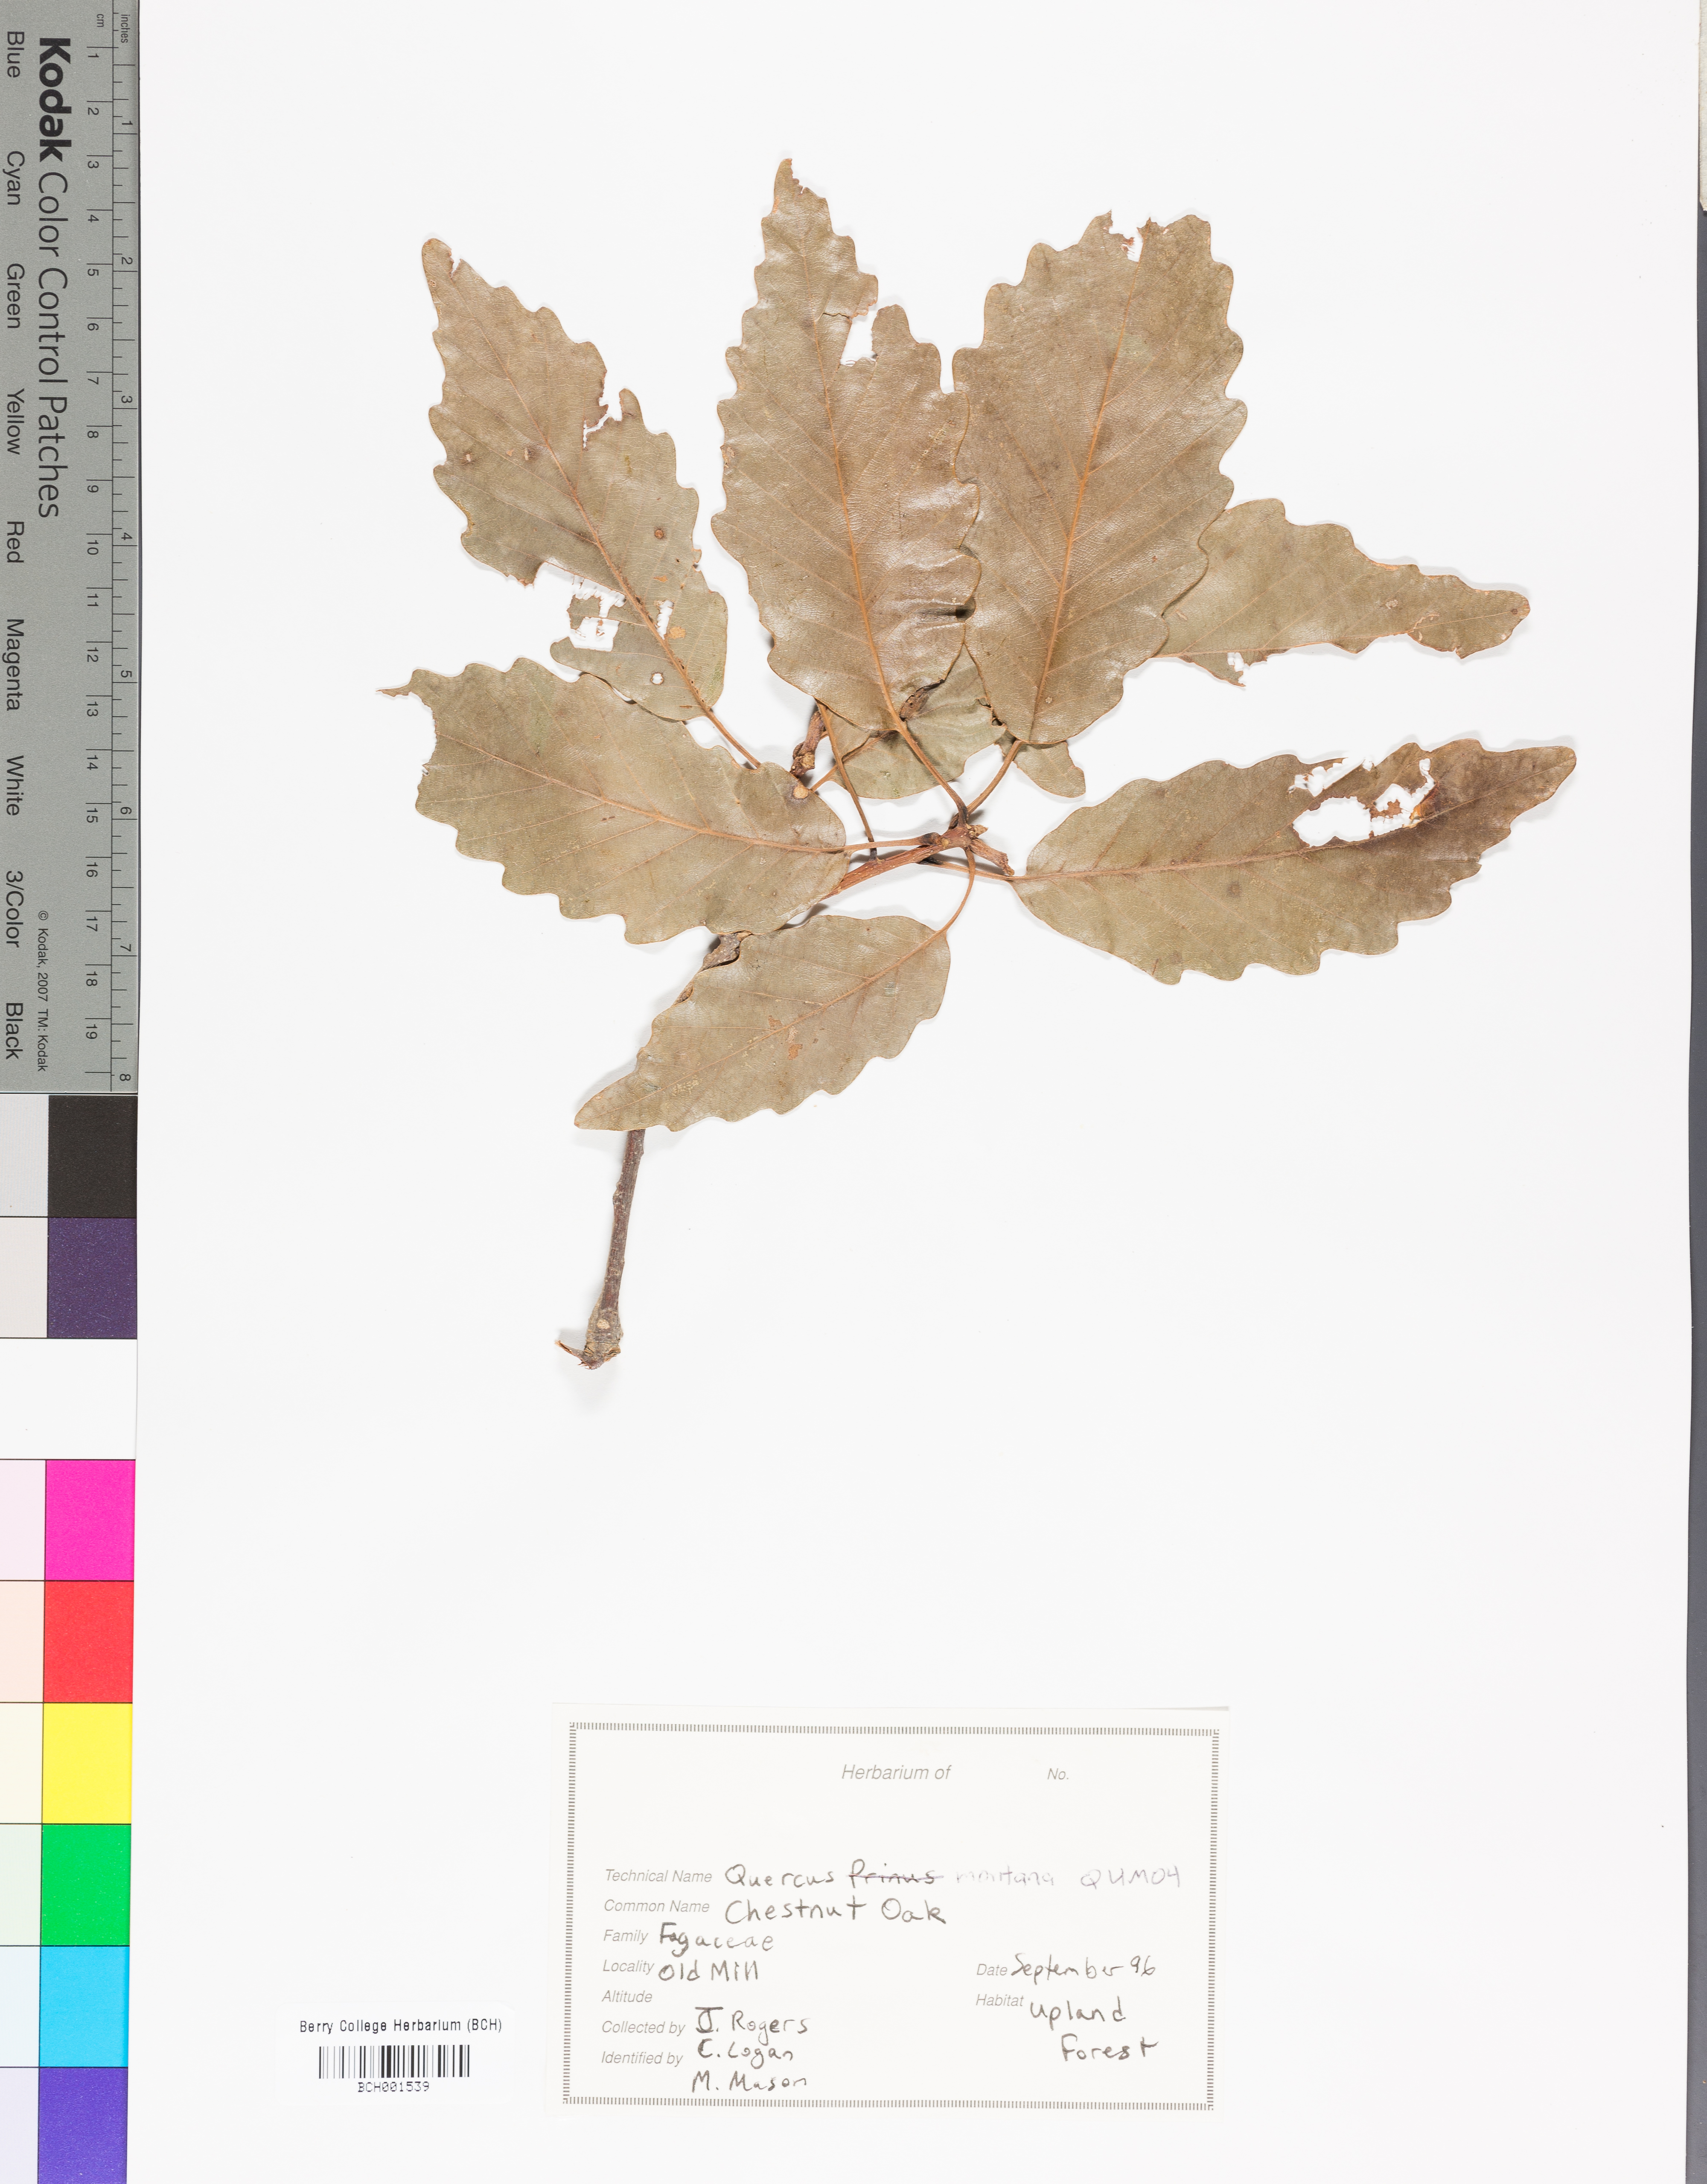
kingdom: Plantae
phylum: Tracheophyta
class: Magnoliopsida
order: Fagales
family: Fagaceae
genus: Quercus
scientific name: Quercus montana
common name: Chestnut oak
